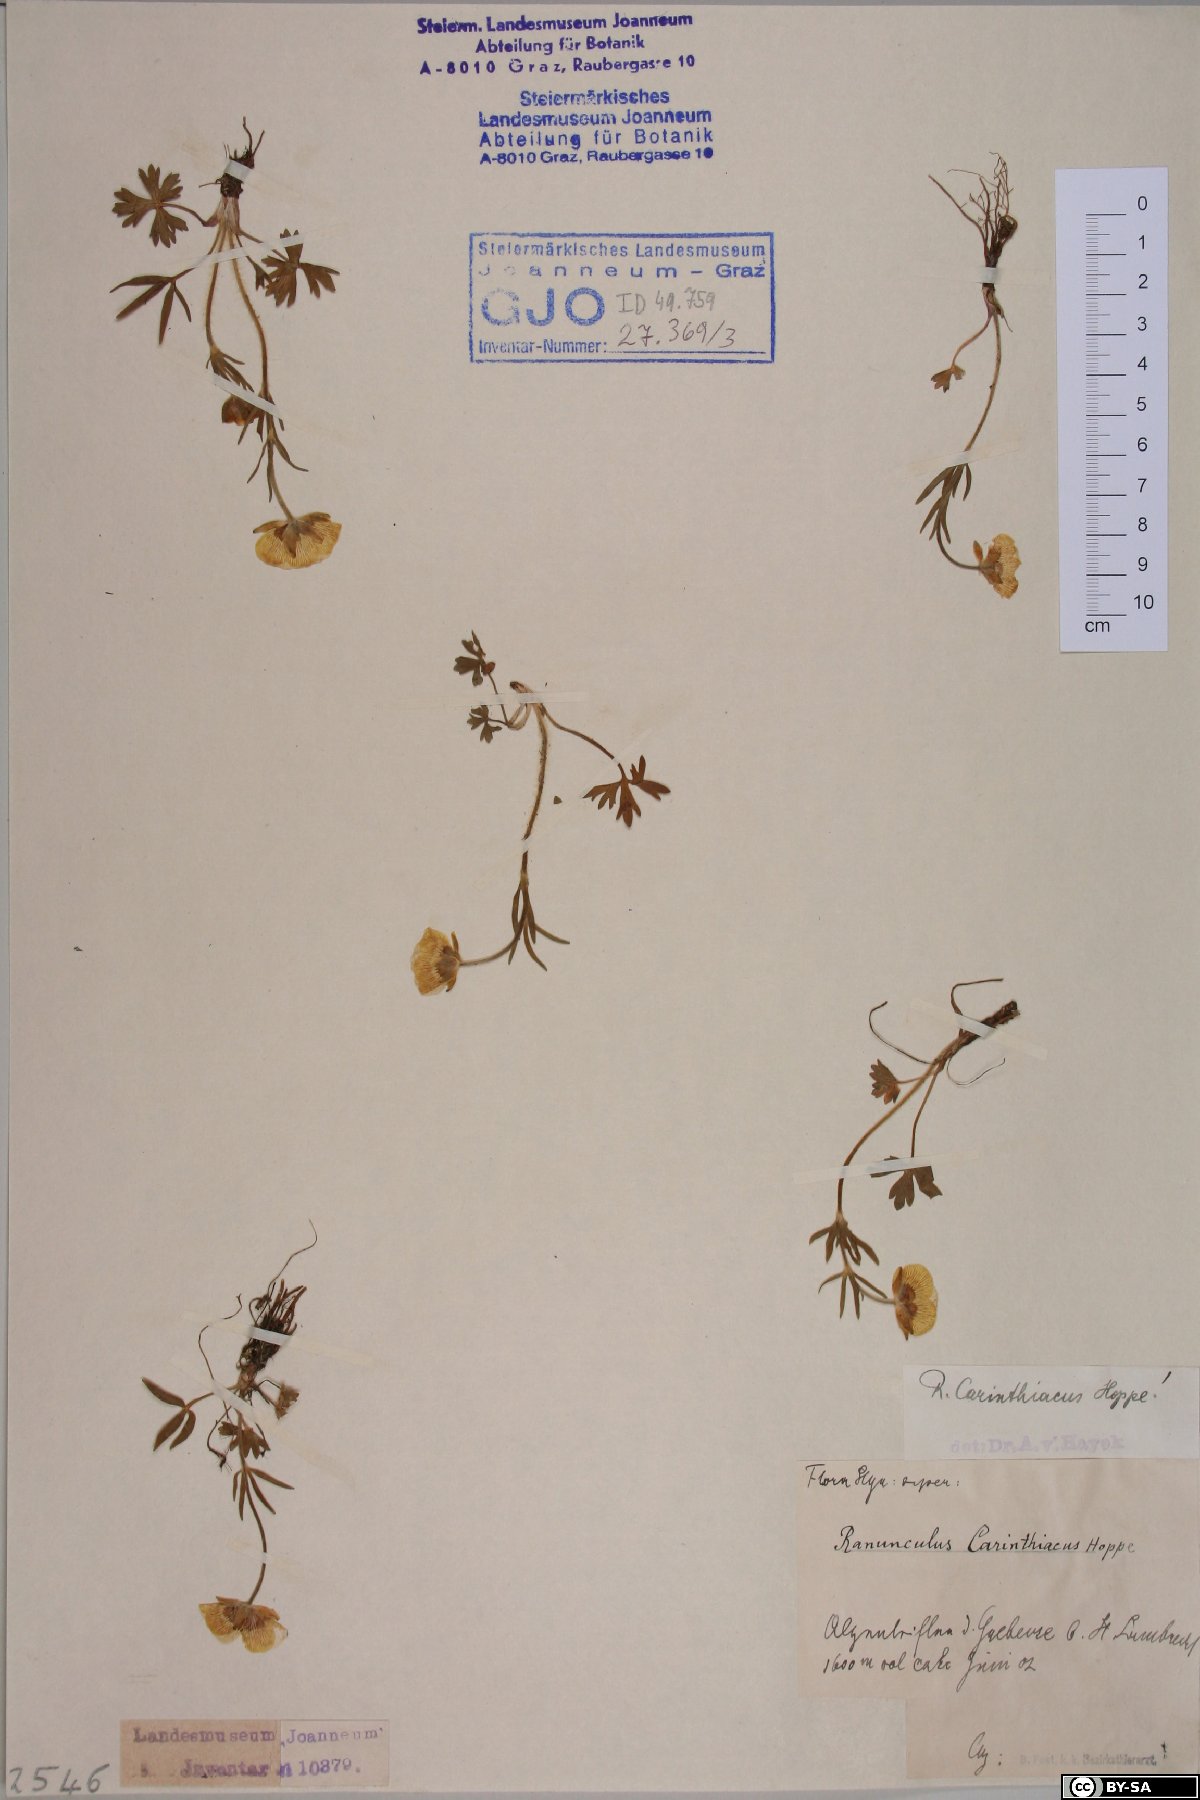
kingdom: Plantae
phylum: Tracheophyta
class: Magnoliopsida
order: Ranunculales
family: Ranunculaceae
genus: Ranunculus
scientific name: Ranunculus carinthiacus
